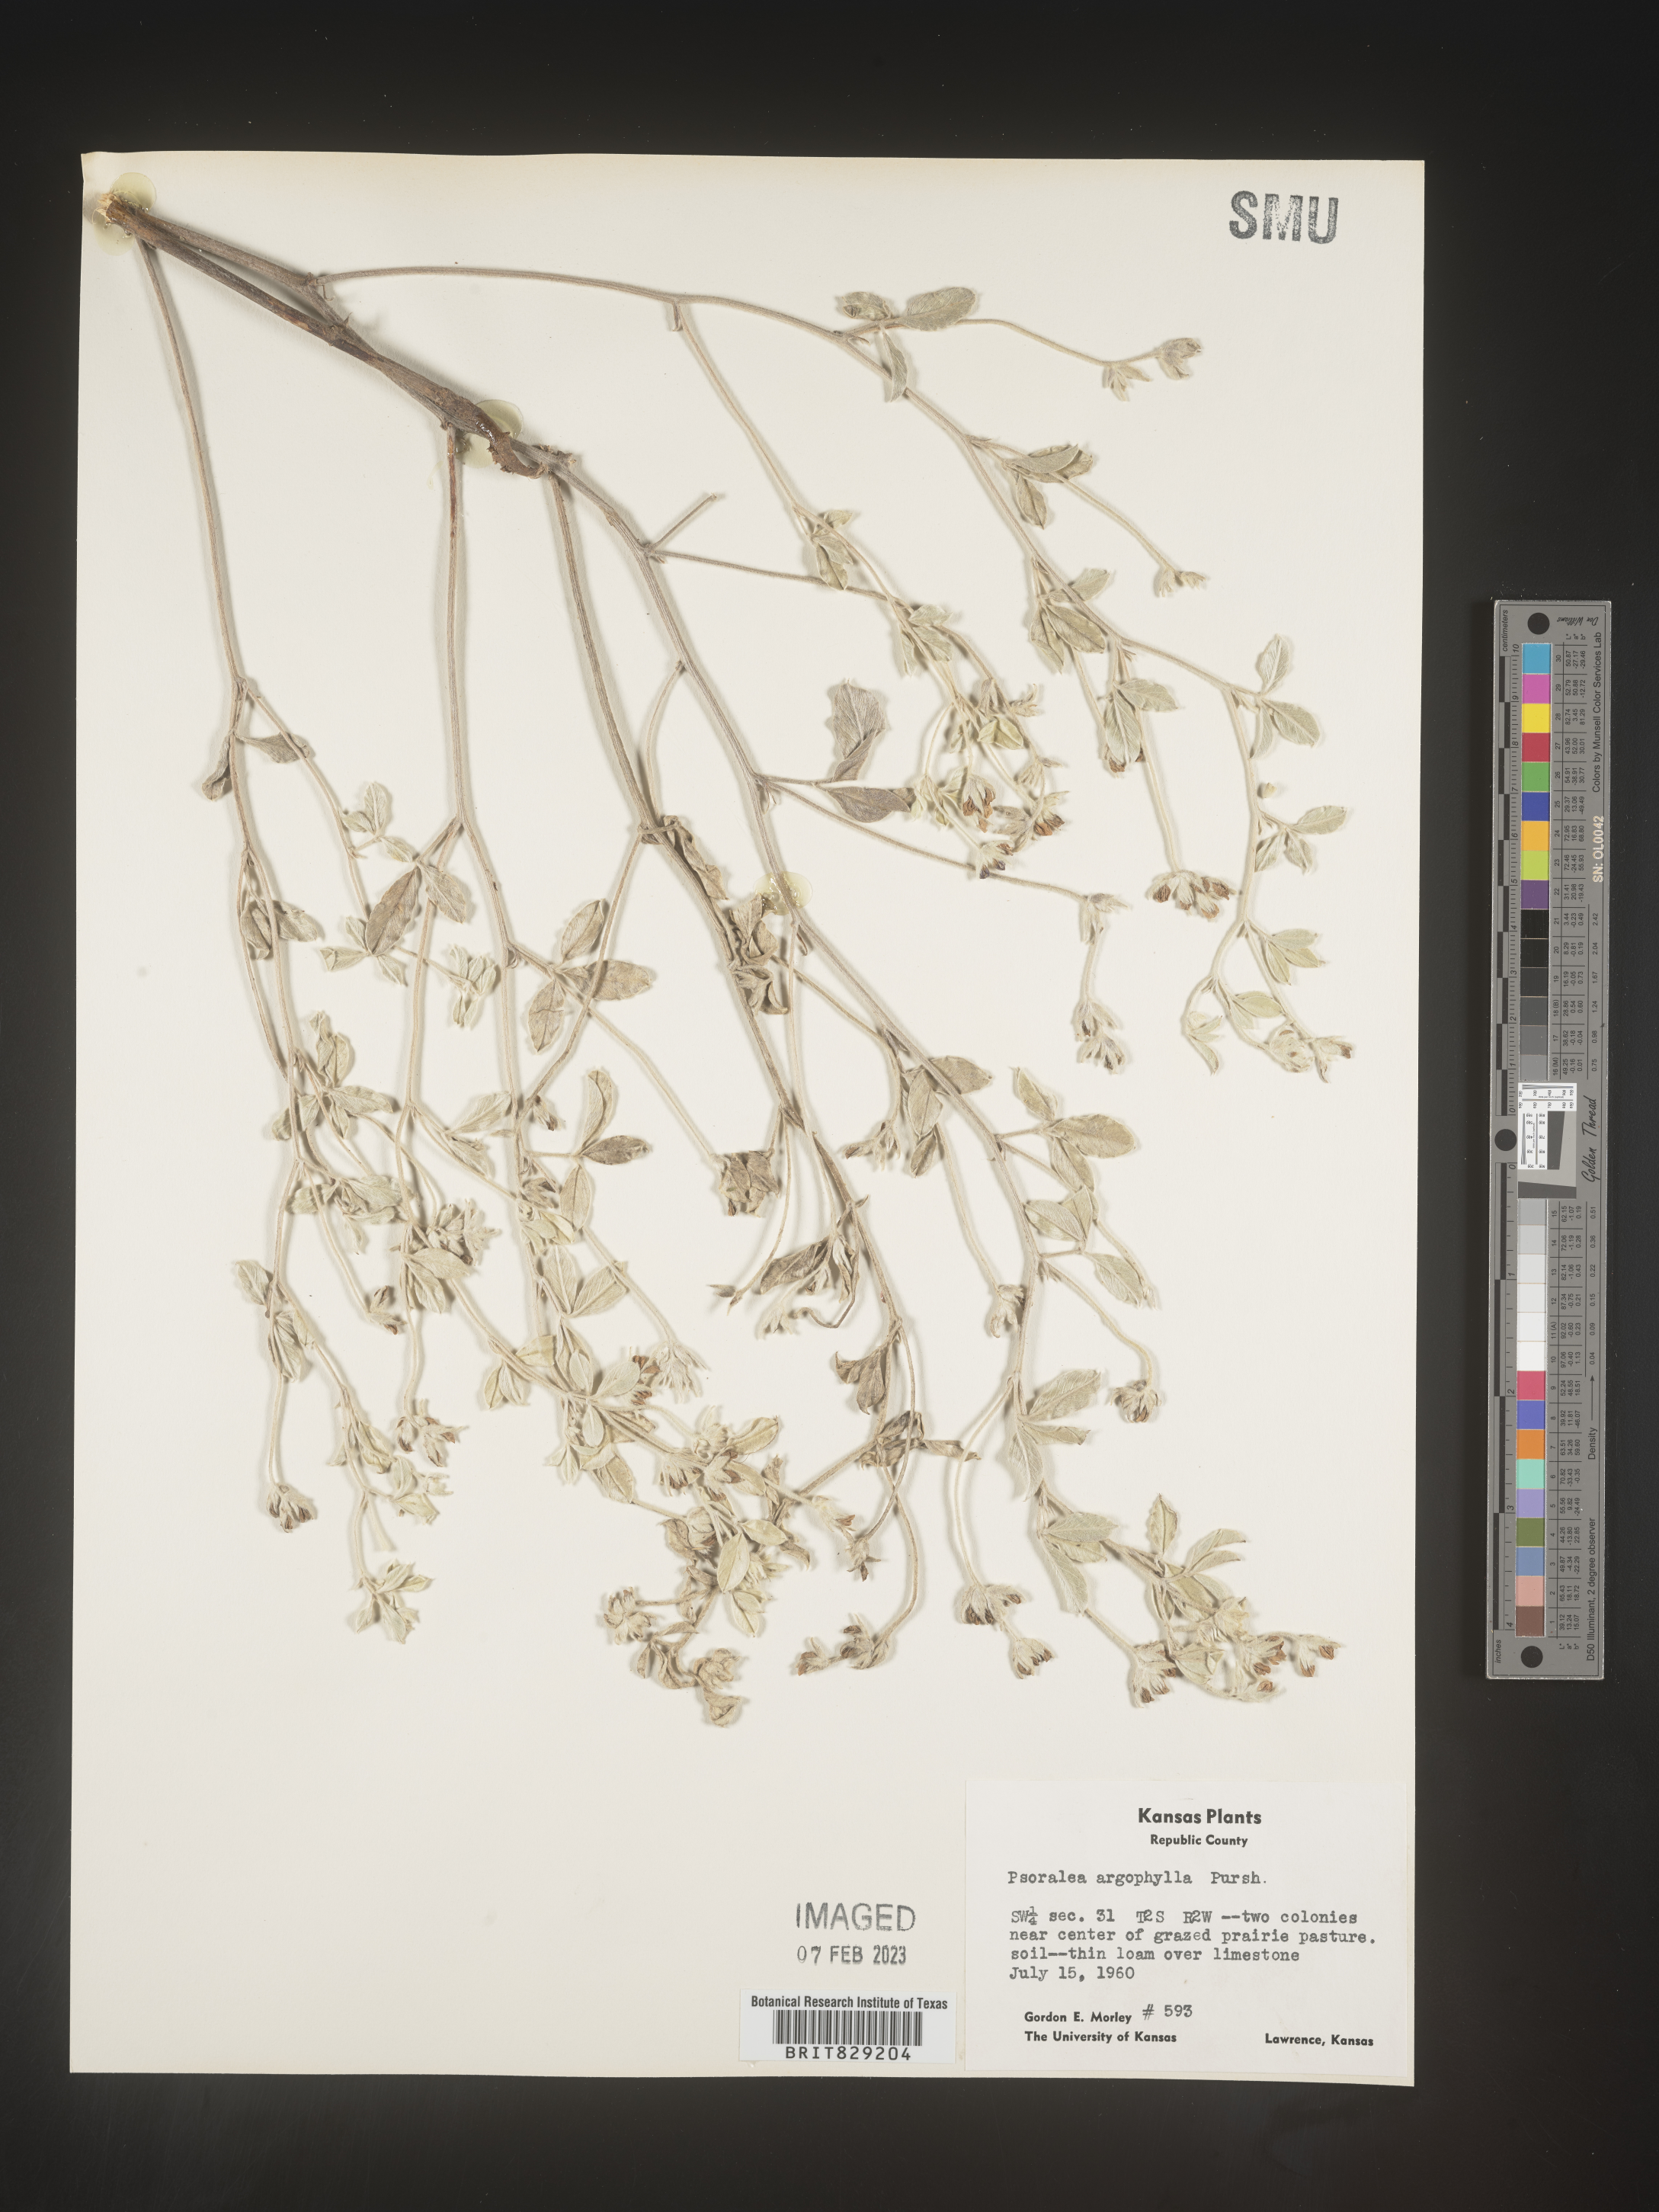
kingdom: Plantae
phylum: Tracheophyta
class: Magnoliopsida
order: Fabales
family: Fabaceae
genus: Pediomelum
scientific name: Pediomelum argophyllum
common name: Silver-leaved indian breadroot
